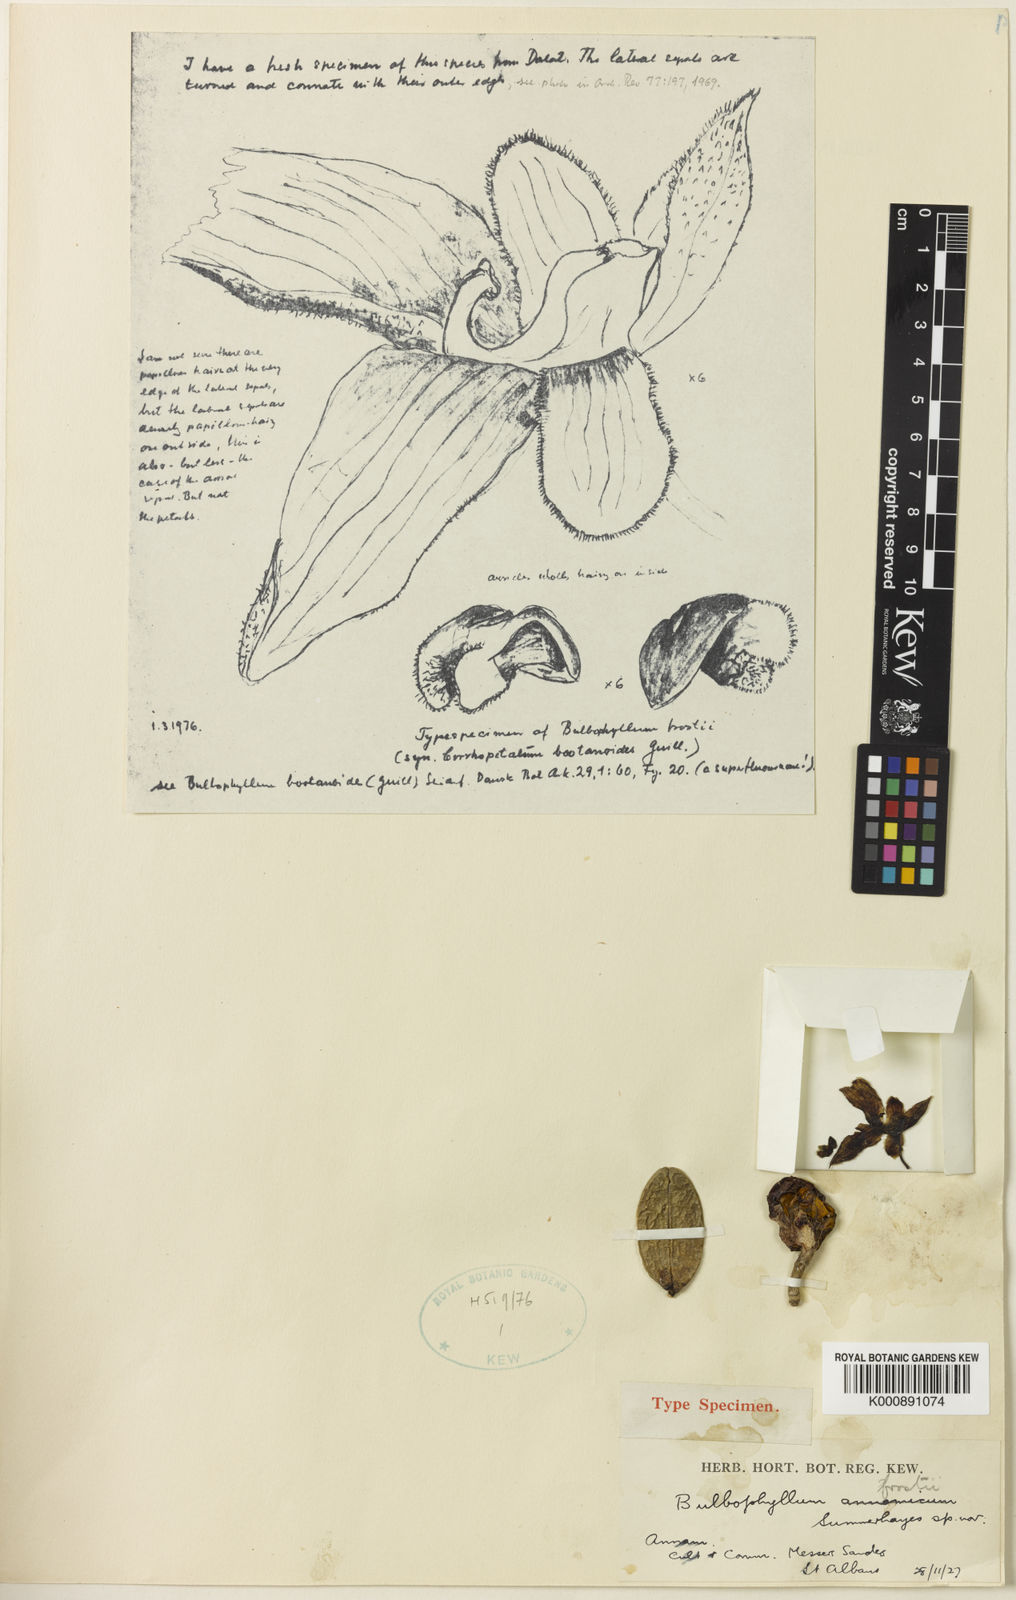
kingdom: Plantae
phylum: Tracheophyta
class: Liliopsida
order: Asparagales
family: Orchidaceae
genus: Bulbophyllum
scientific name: Bulbophyllum frostii
